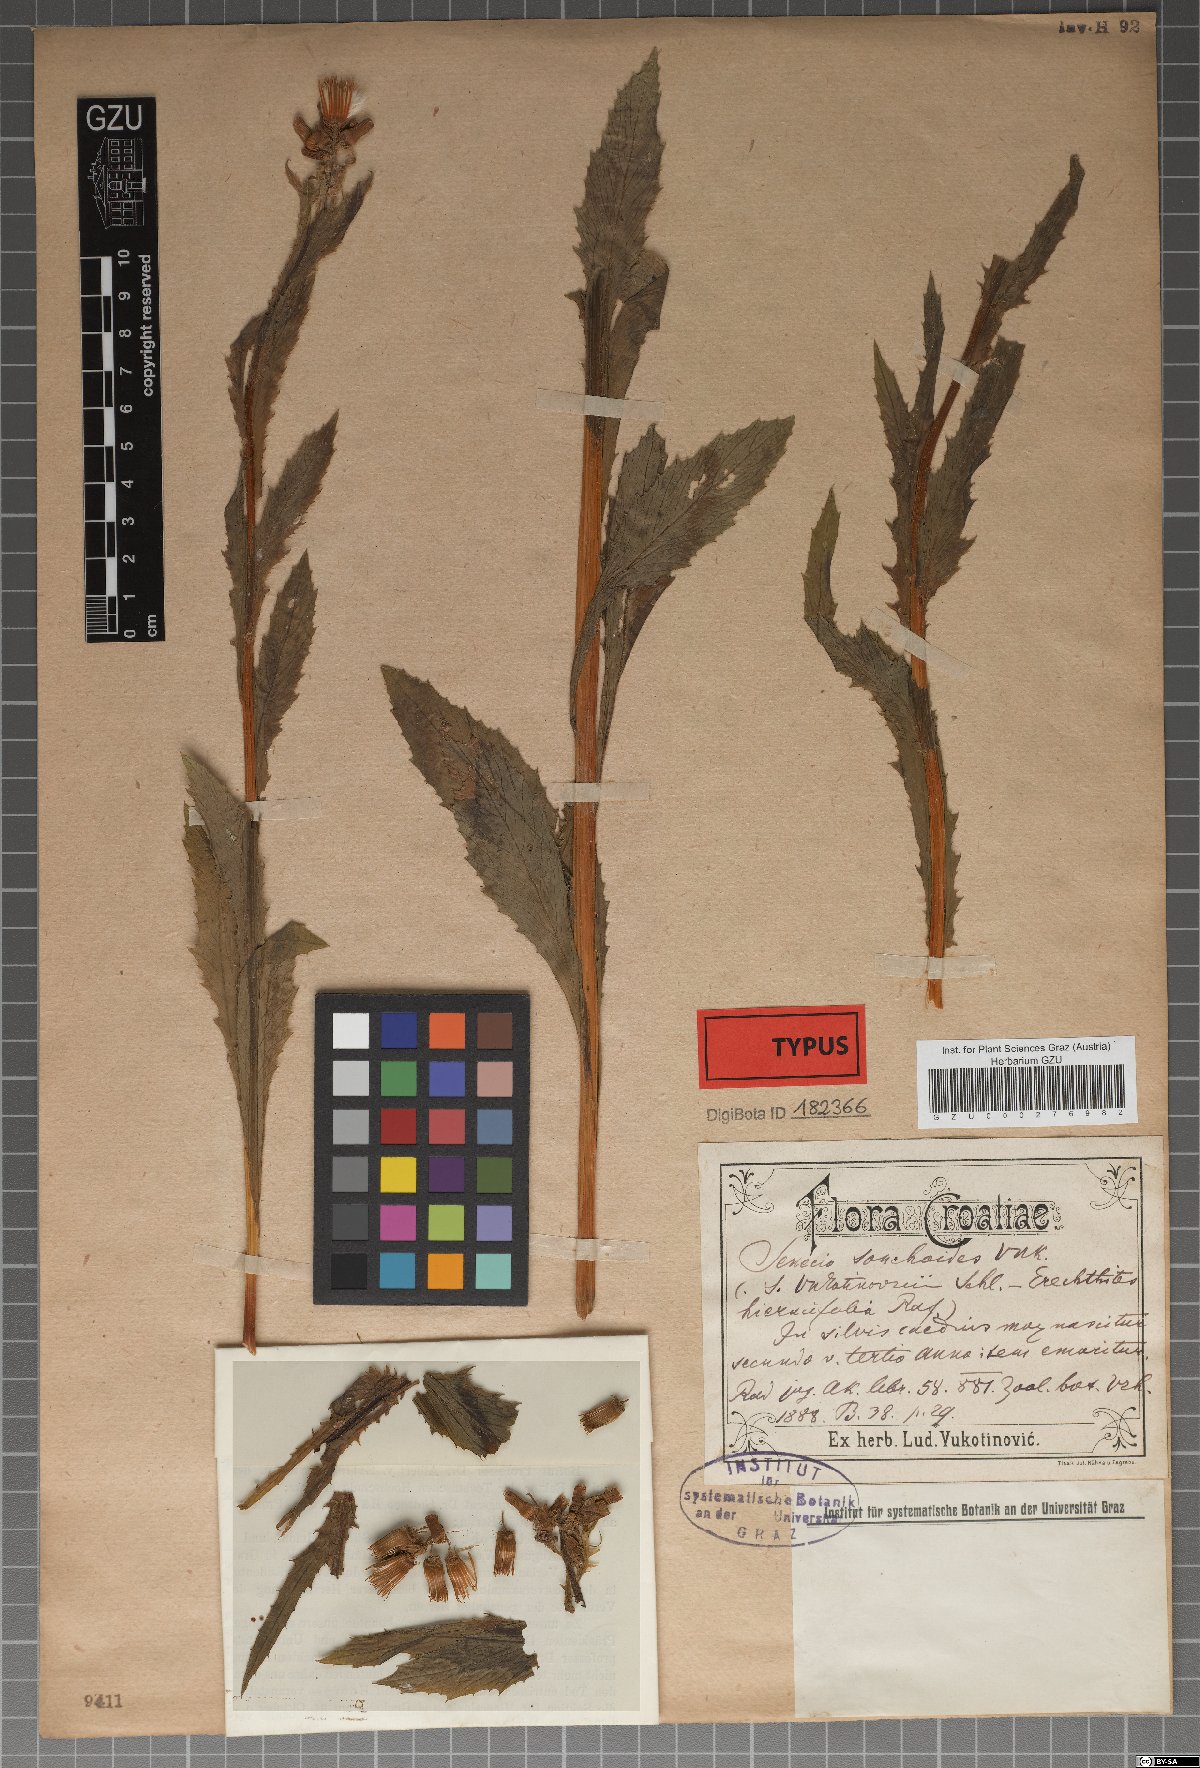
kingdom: Plantae
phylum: Tracheophyta
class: Magnoliopsida
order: Asterales
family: Asteraceae
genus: Senecio
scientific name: Senecio
